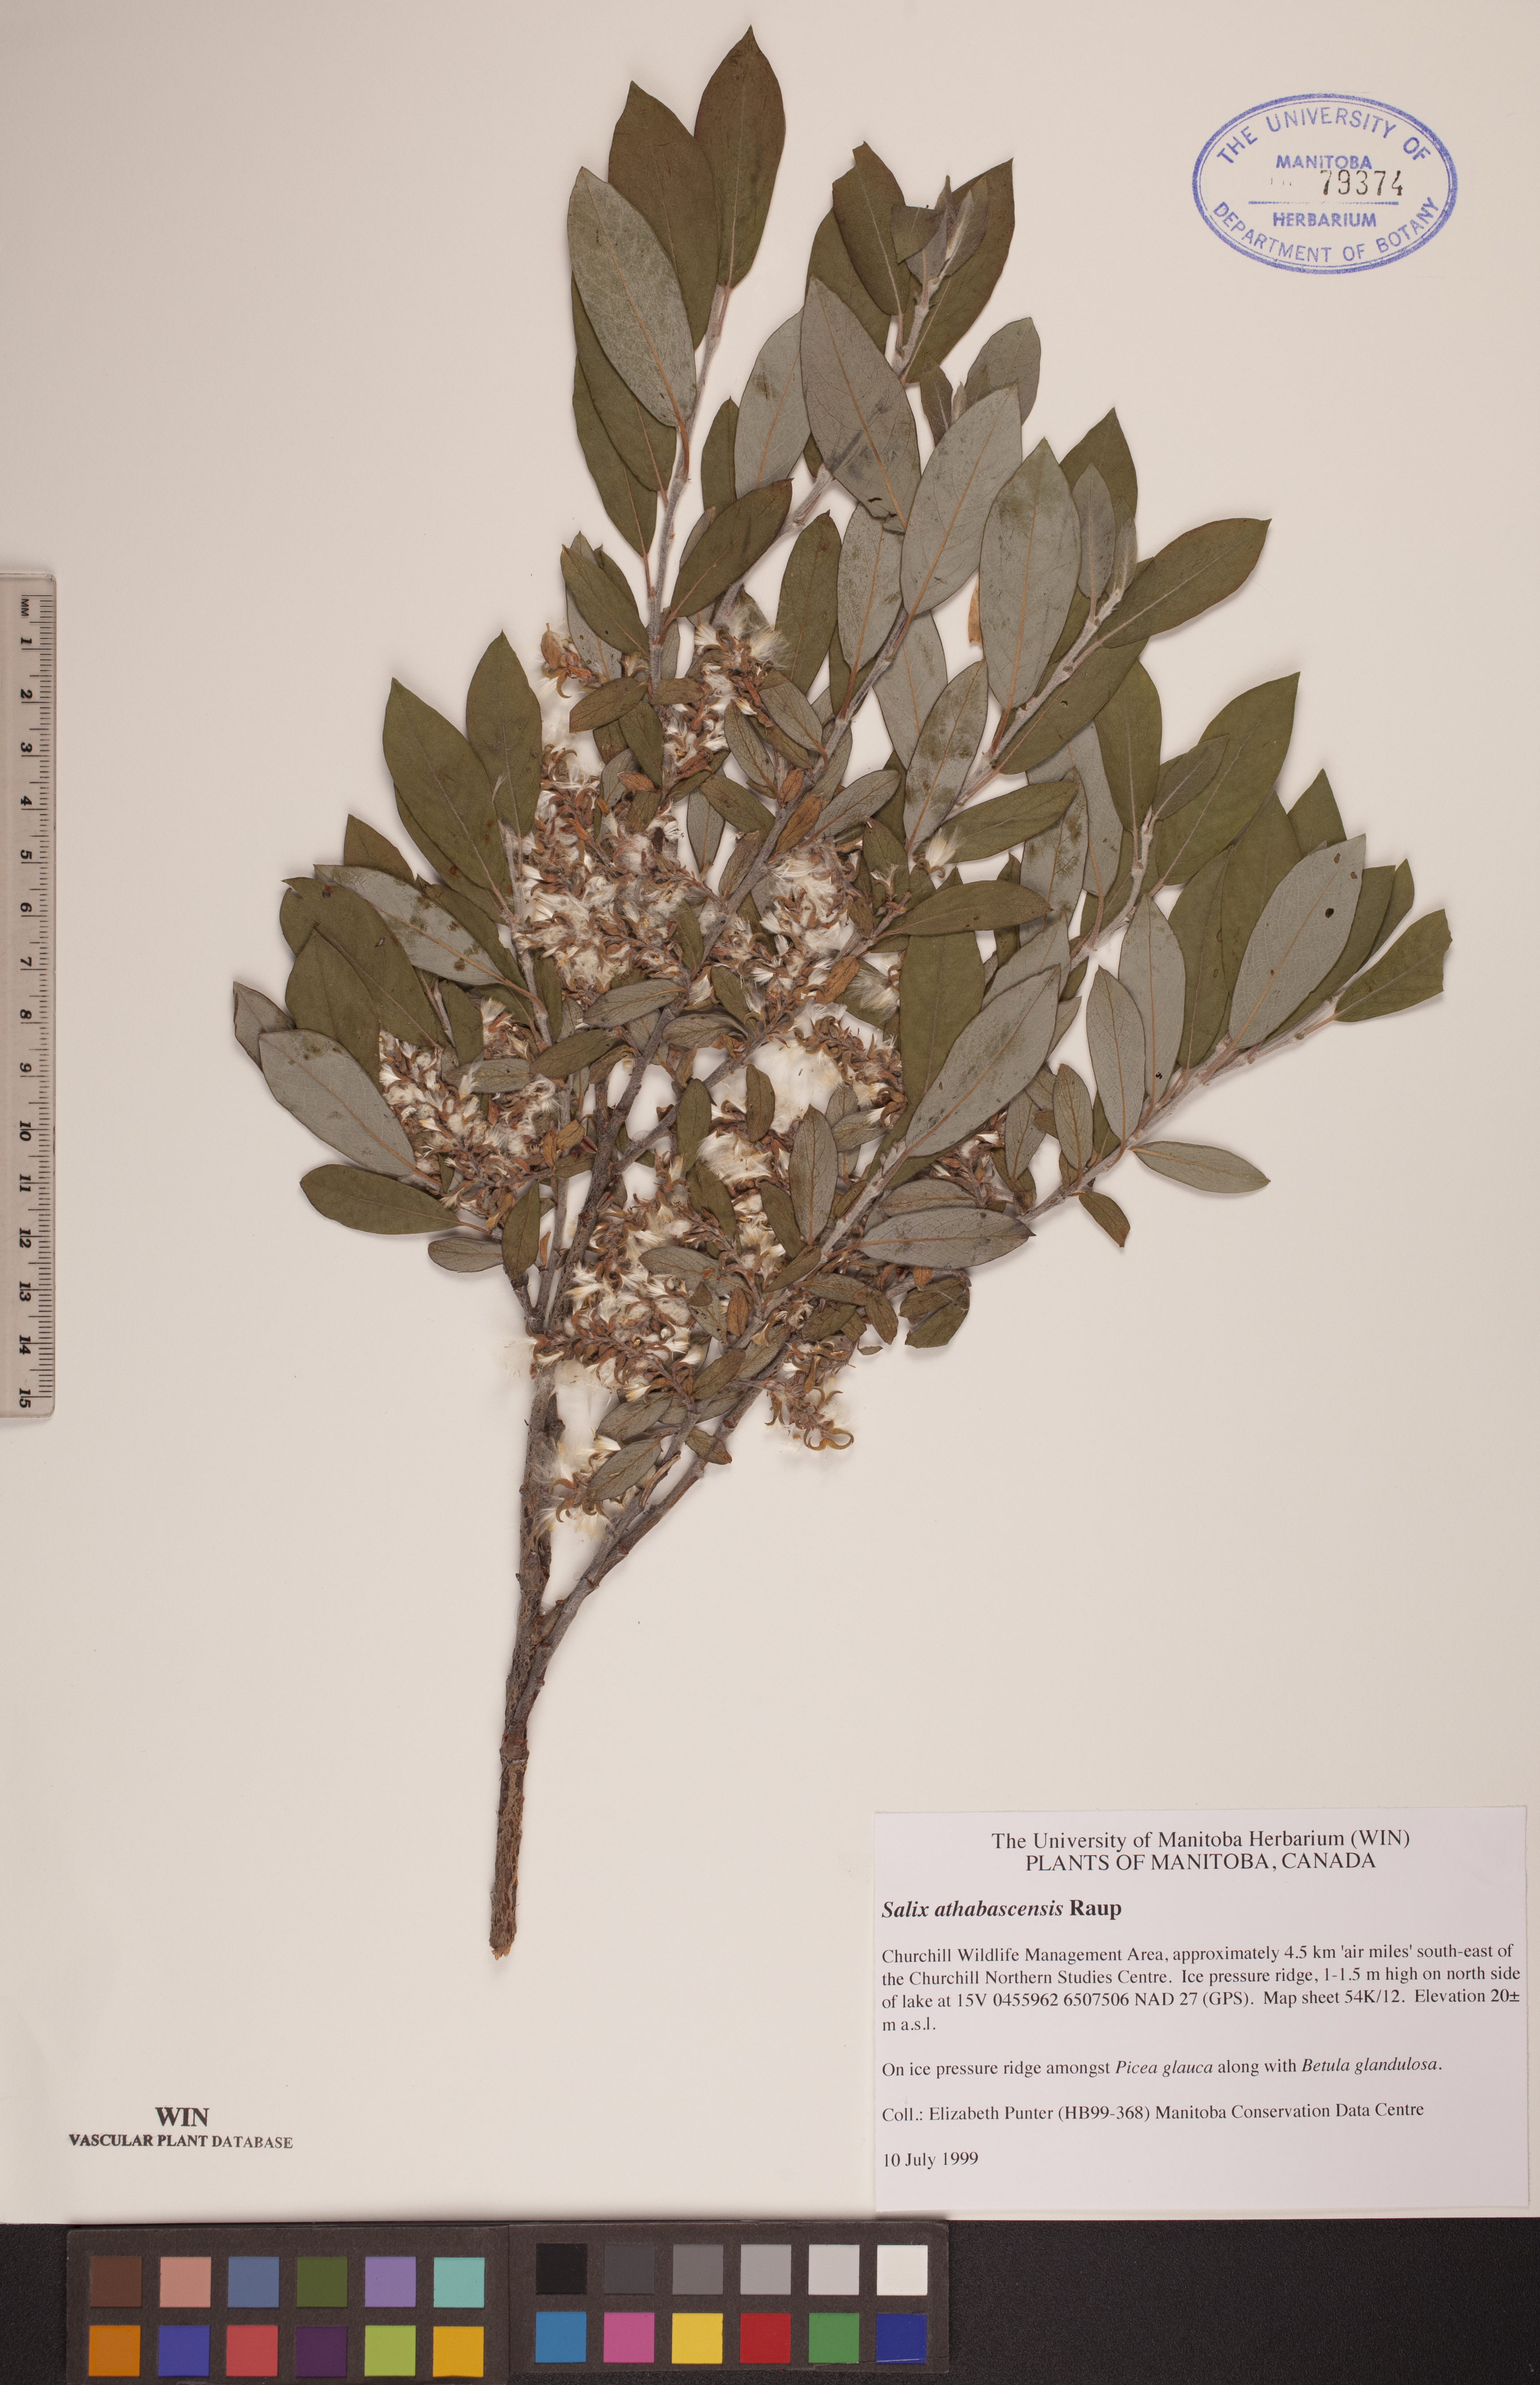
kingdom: Plantae
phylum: Tracheophyta
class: Magnoliopsida
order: Malpighiales
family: Salicaceae
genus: Salix
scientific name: Salix athabascensis
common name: Athabasca willow
